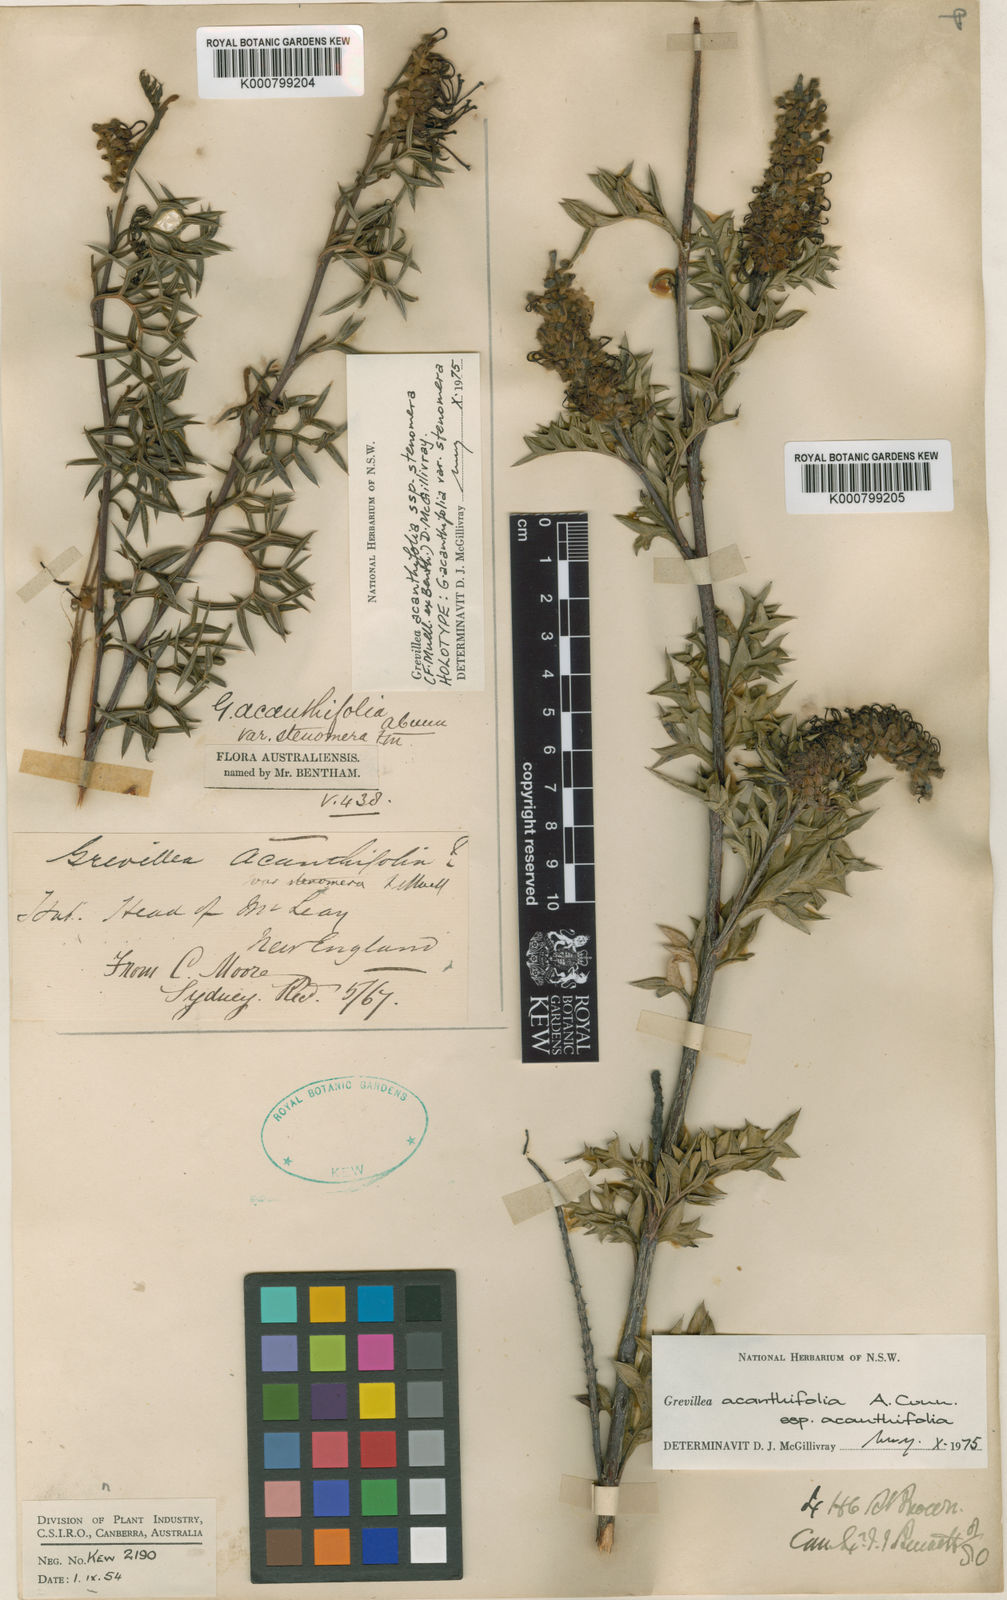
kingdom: Plantae
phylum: Tracheophyta
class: Magnoliopsida
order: Proteales
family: Proteaceae
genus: Grevillea
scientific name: Grevillea acanthifolia
